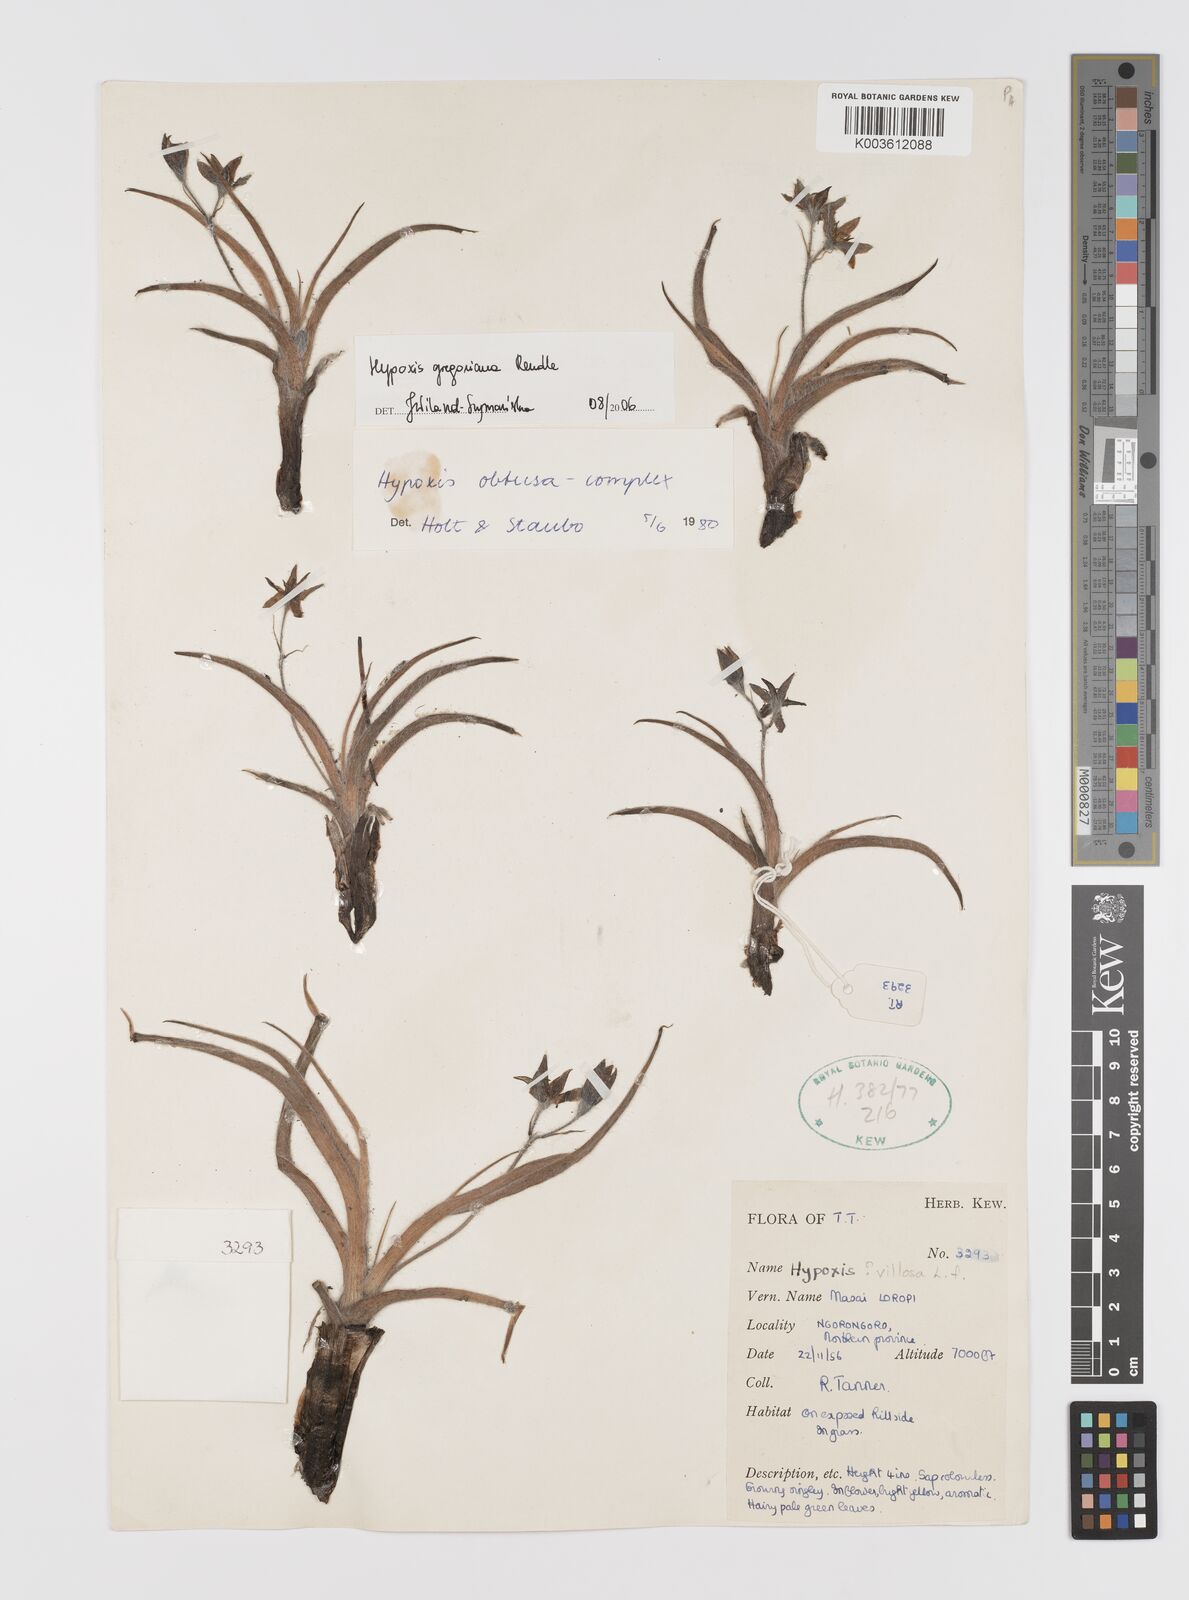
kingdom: Plantae
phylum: Tracheophyta
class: Liliopsida
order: Asparagales
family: Hypoxidaceae
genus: Hypoxis
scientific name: Hypoxis gregoriana
